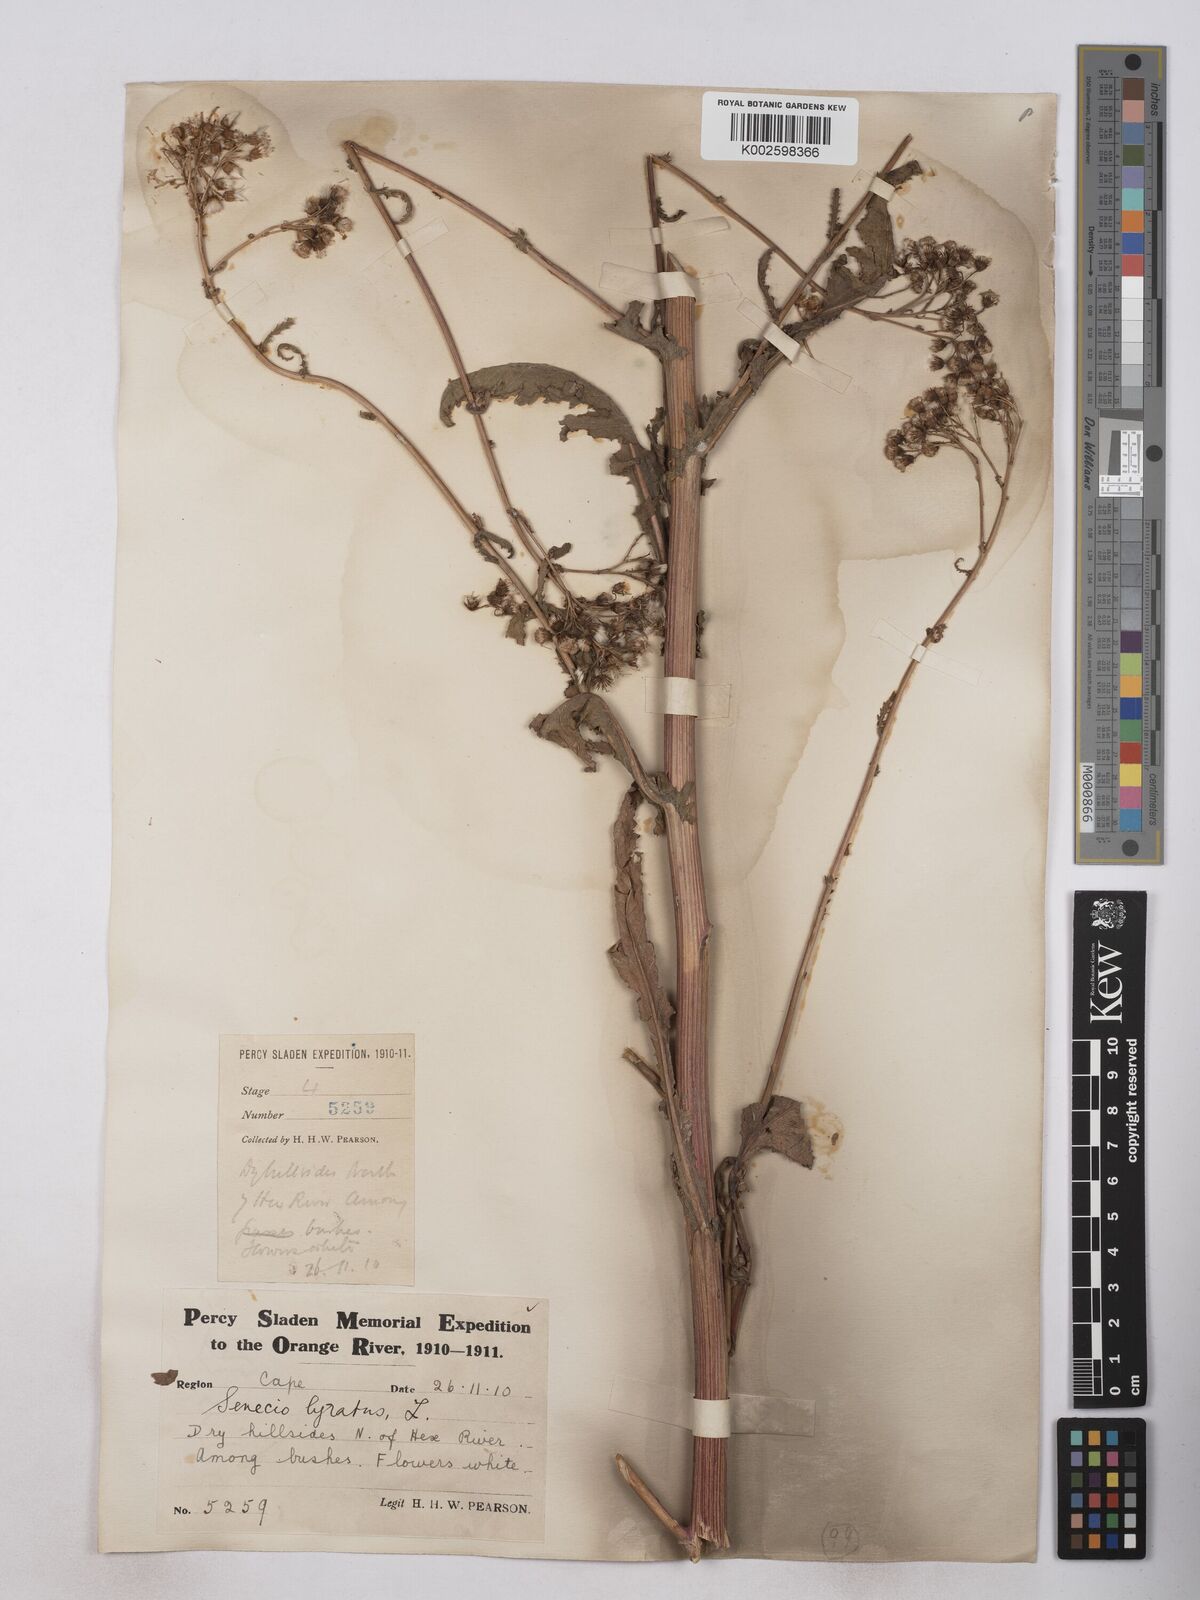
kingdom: Plantae
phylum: Tracheophyta
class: Magnoliopsida
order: Asterales
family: Asteraceae
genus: Senecio
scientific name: Senecio anapetes
